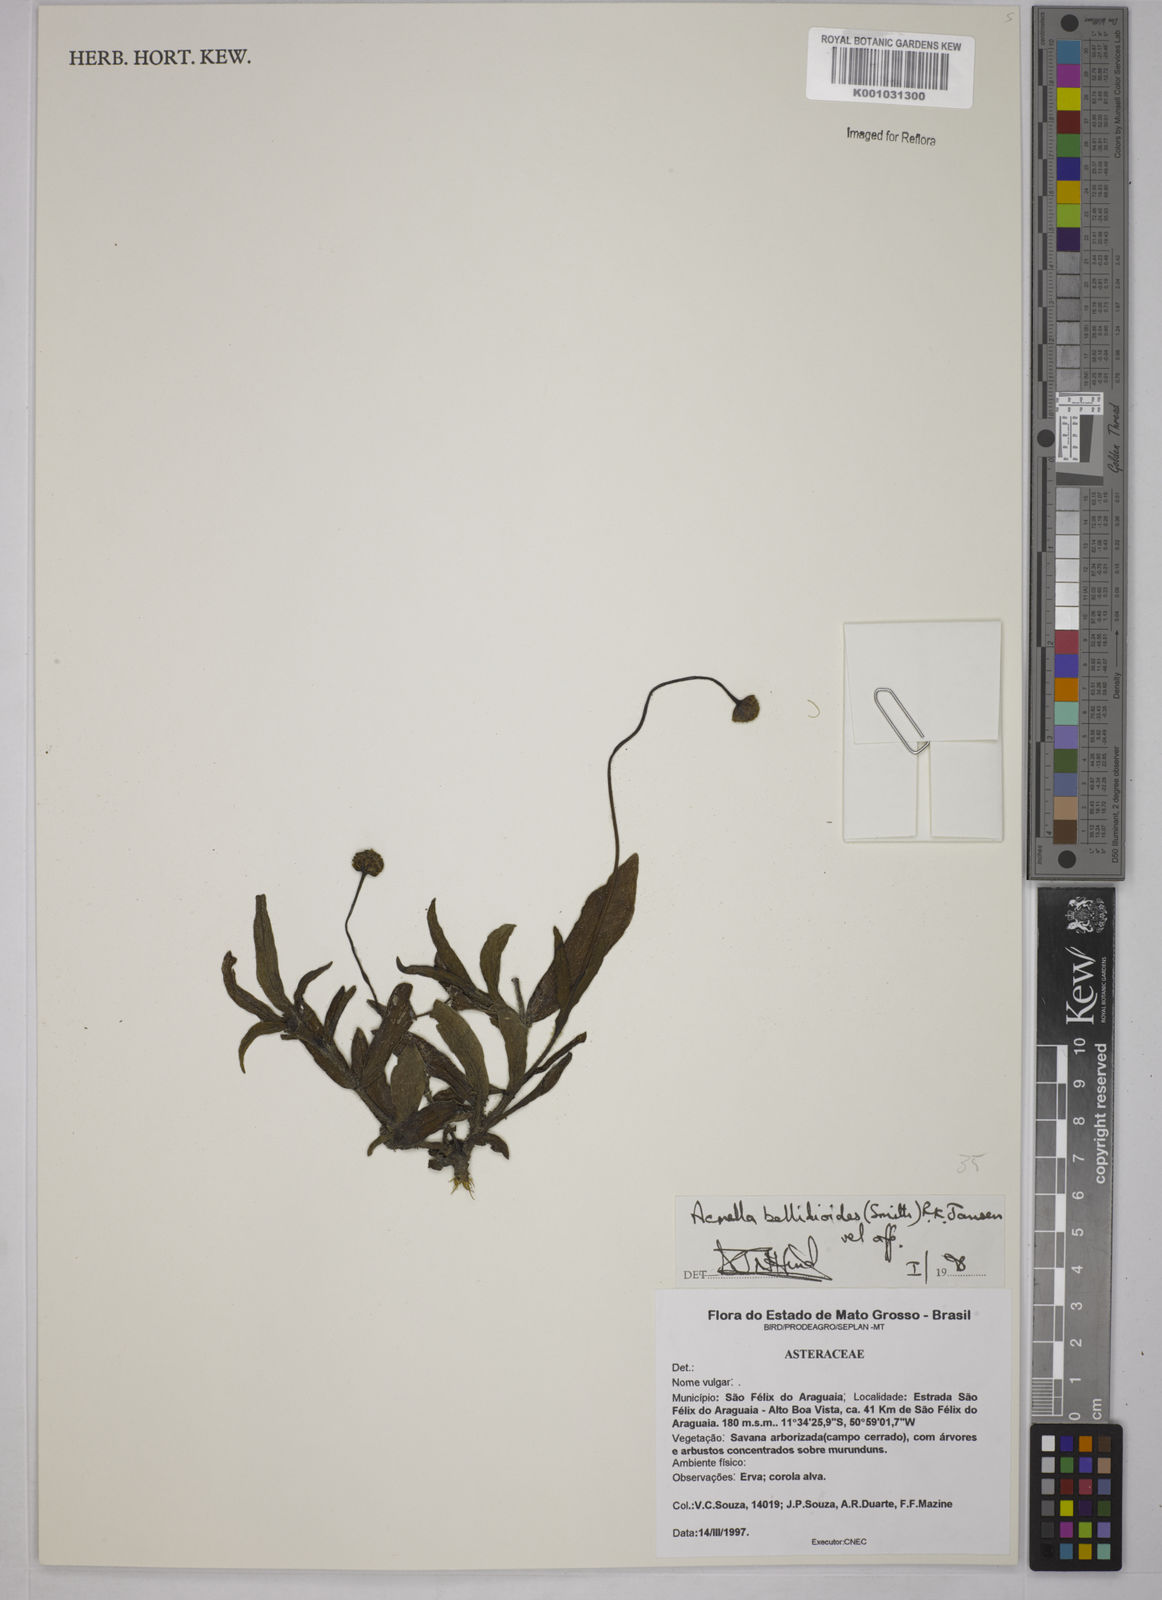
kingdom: Plantae
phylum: Tracheophyta
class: Magnoliopsida
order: Asterales
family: Asteraceae
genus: Acmella
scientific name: Acmella bellidioides
